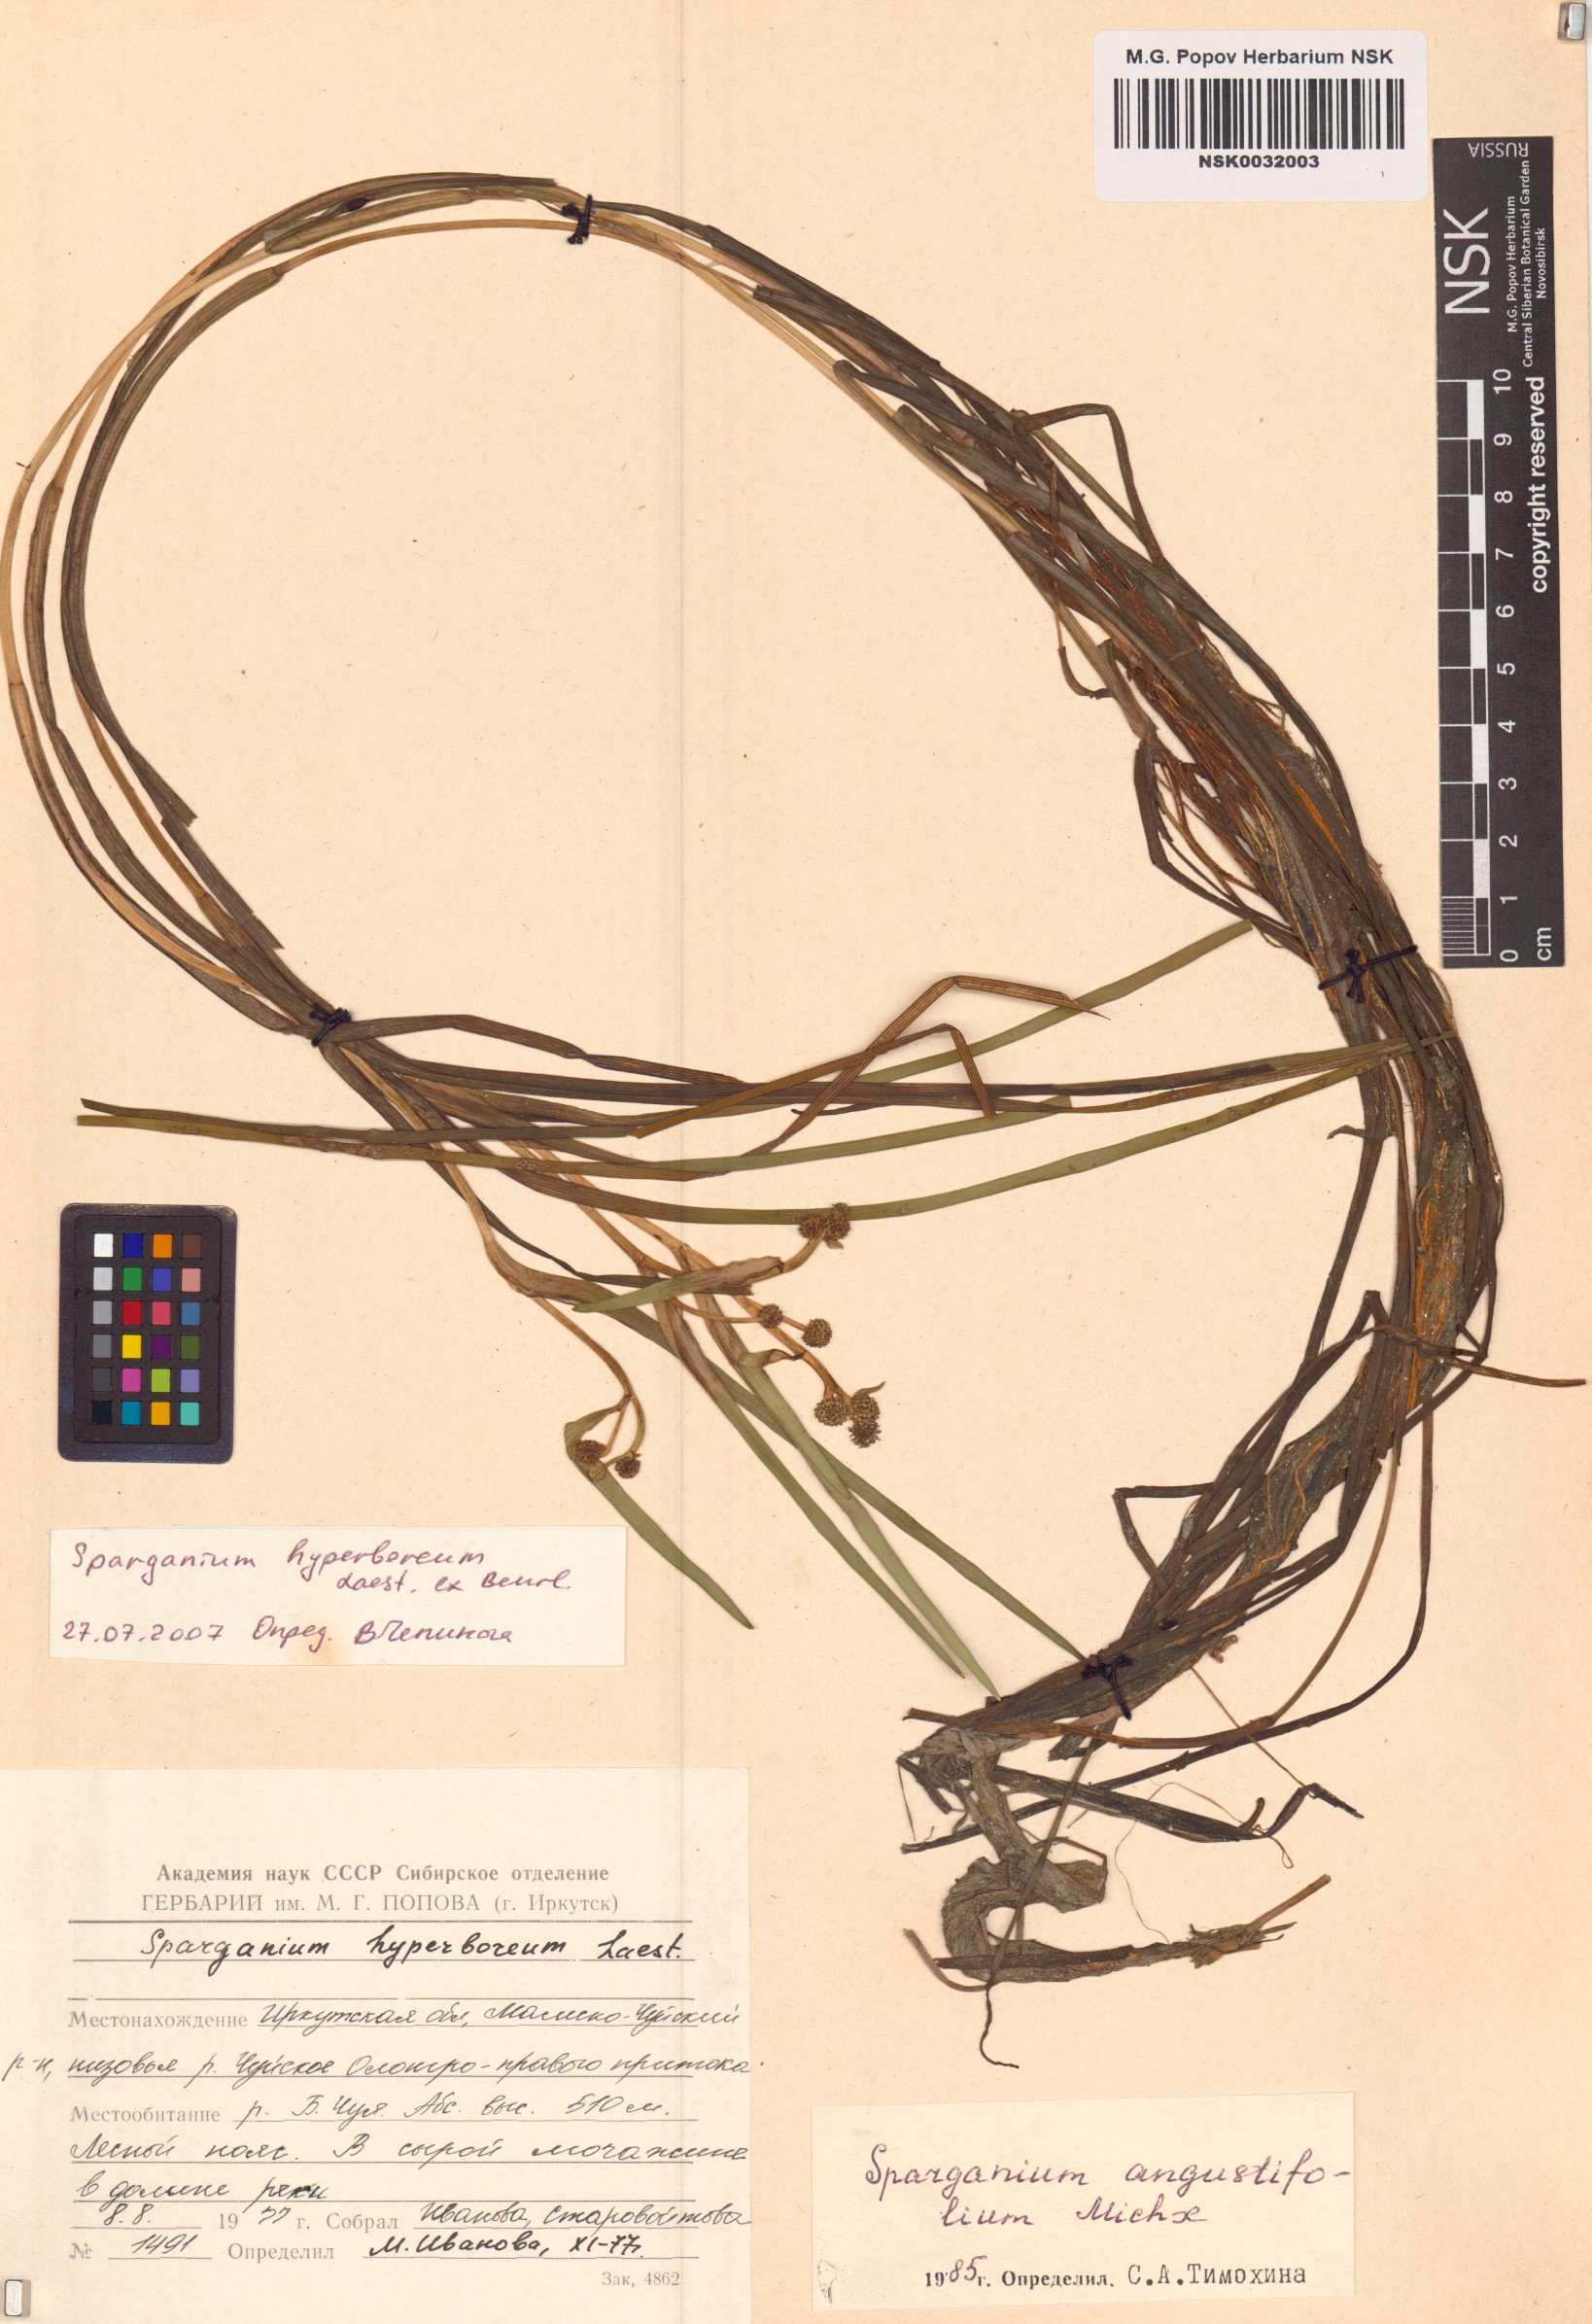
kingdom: Plantae
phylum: Tracheophyta
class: Liliopsida
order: Poales
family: Typhaceae
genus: Sparganium
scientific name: Sparganium hyperboreum
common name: Arctic burreed
